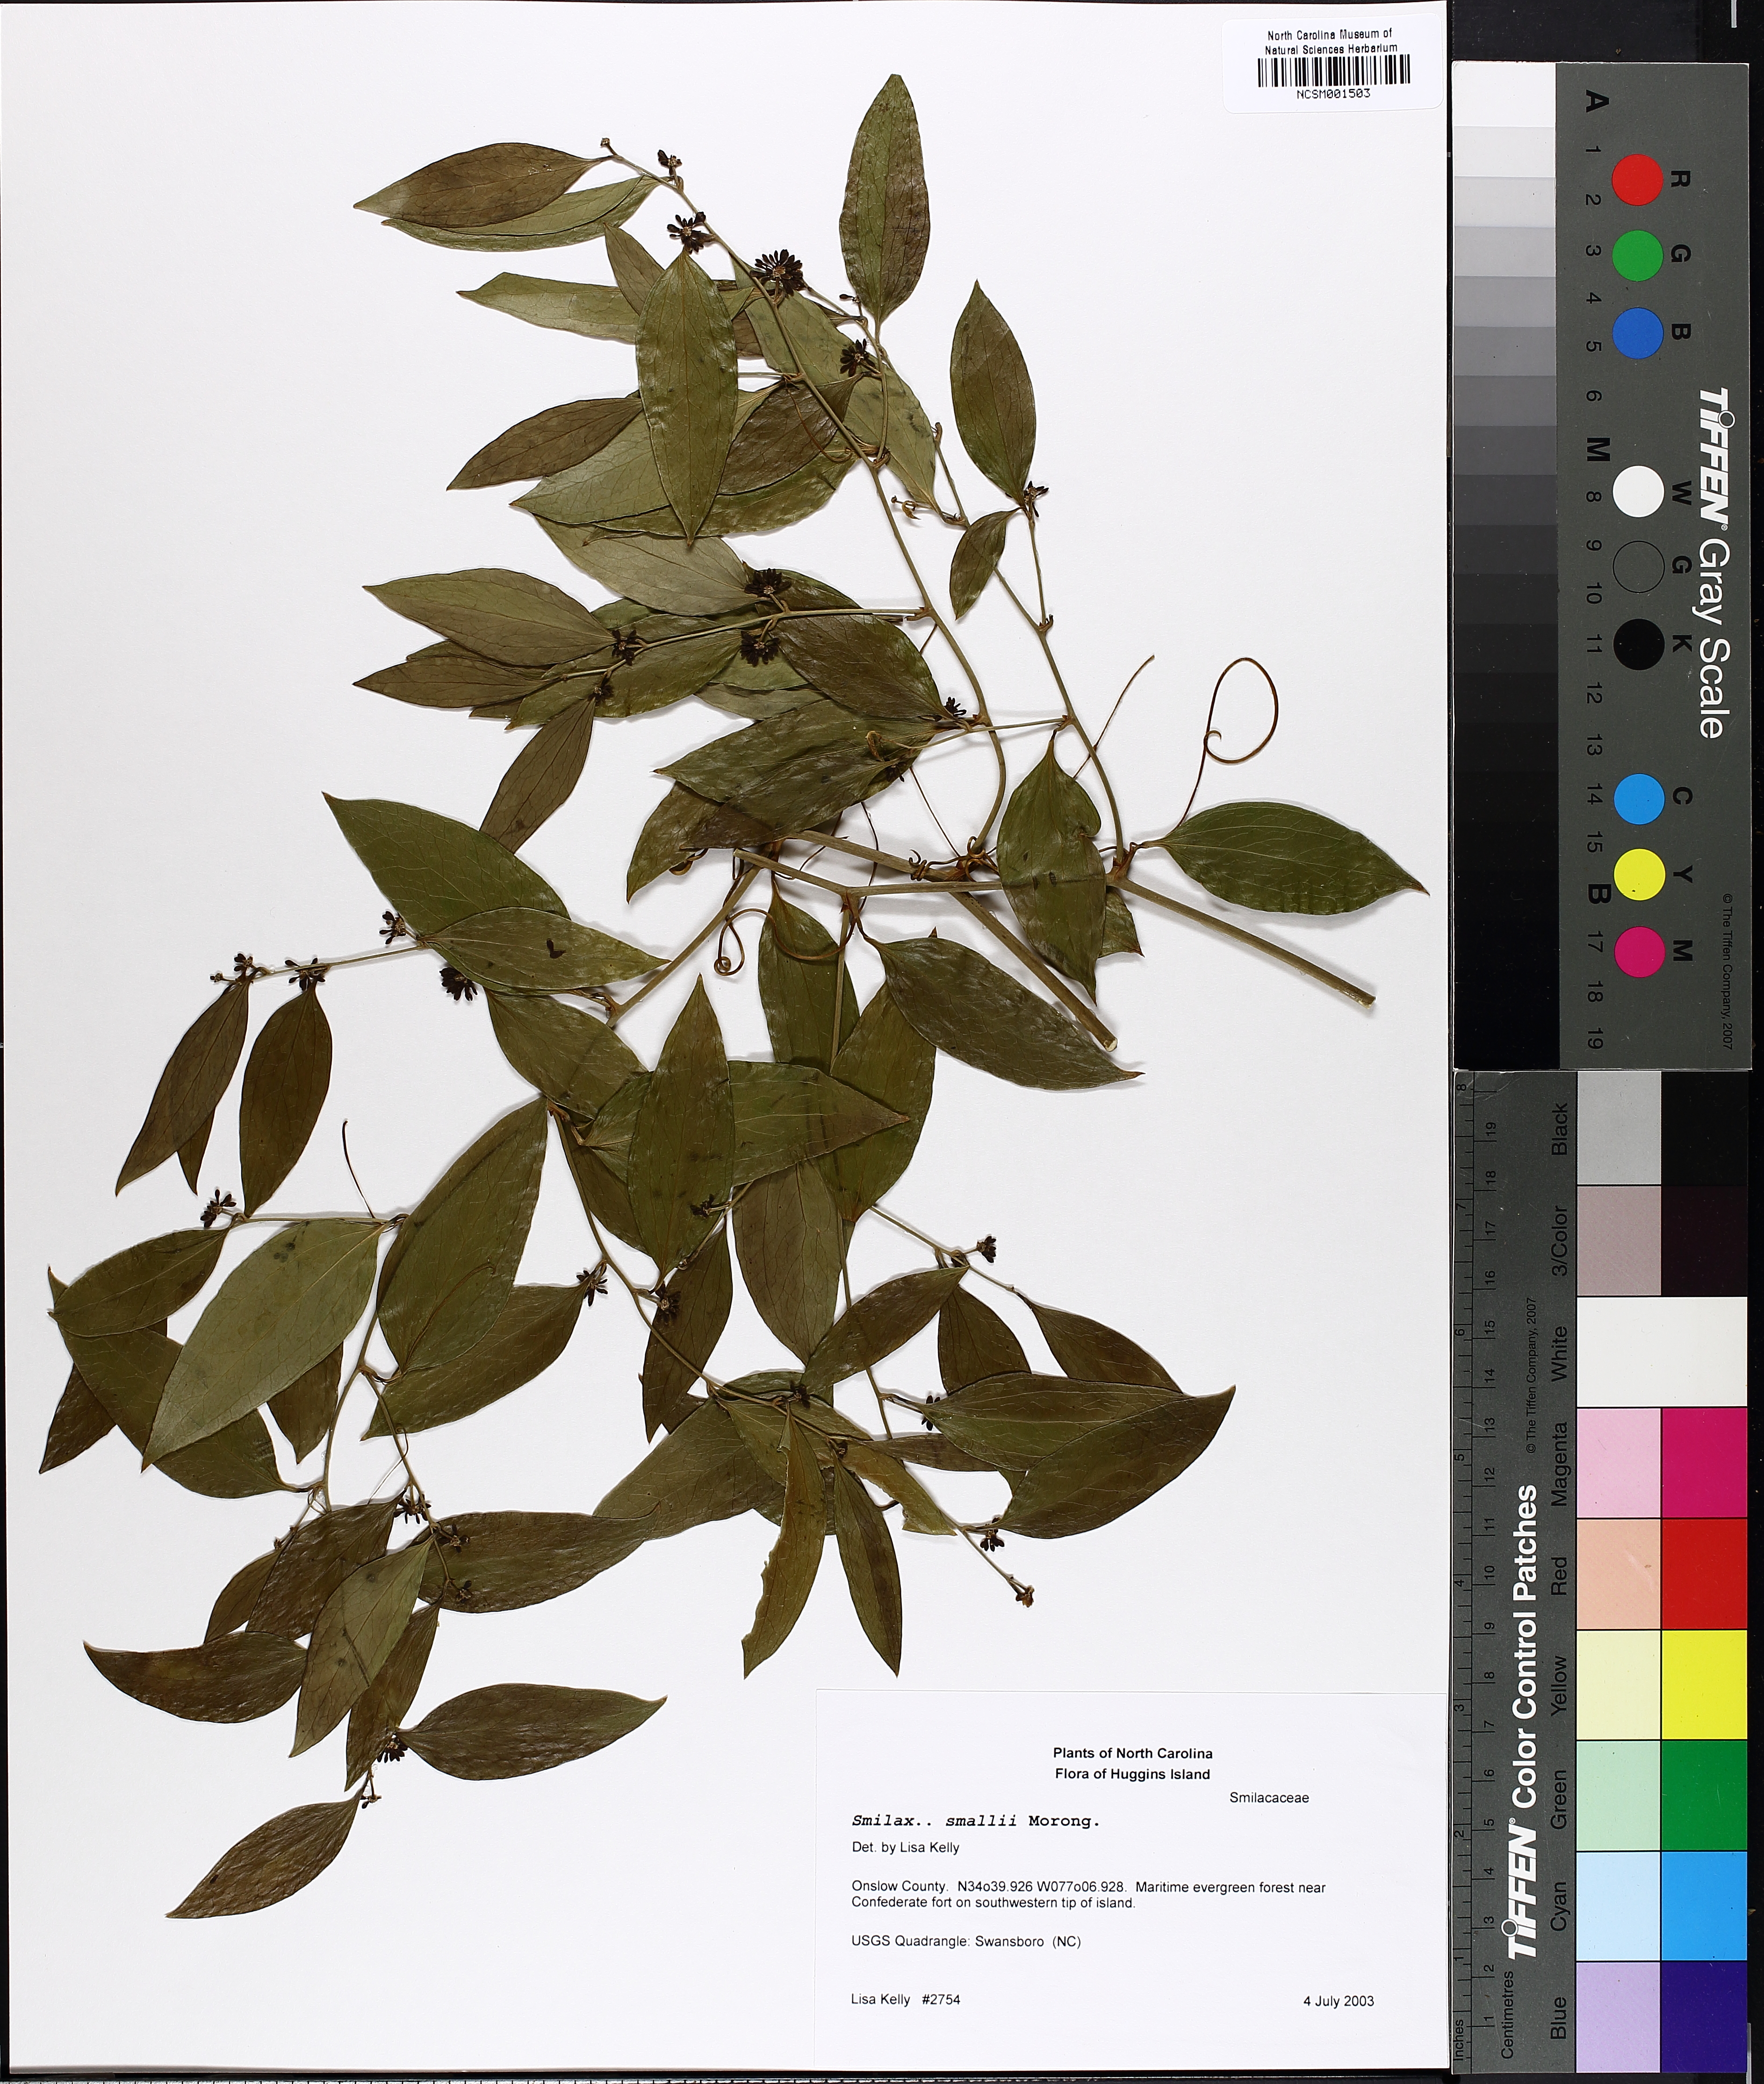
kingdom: Plantae
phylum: Tracheophyta
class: Liliopsida
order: Liliales
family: Smilacaceae
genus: Smilax
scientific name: Smilax maritima
